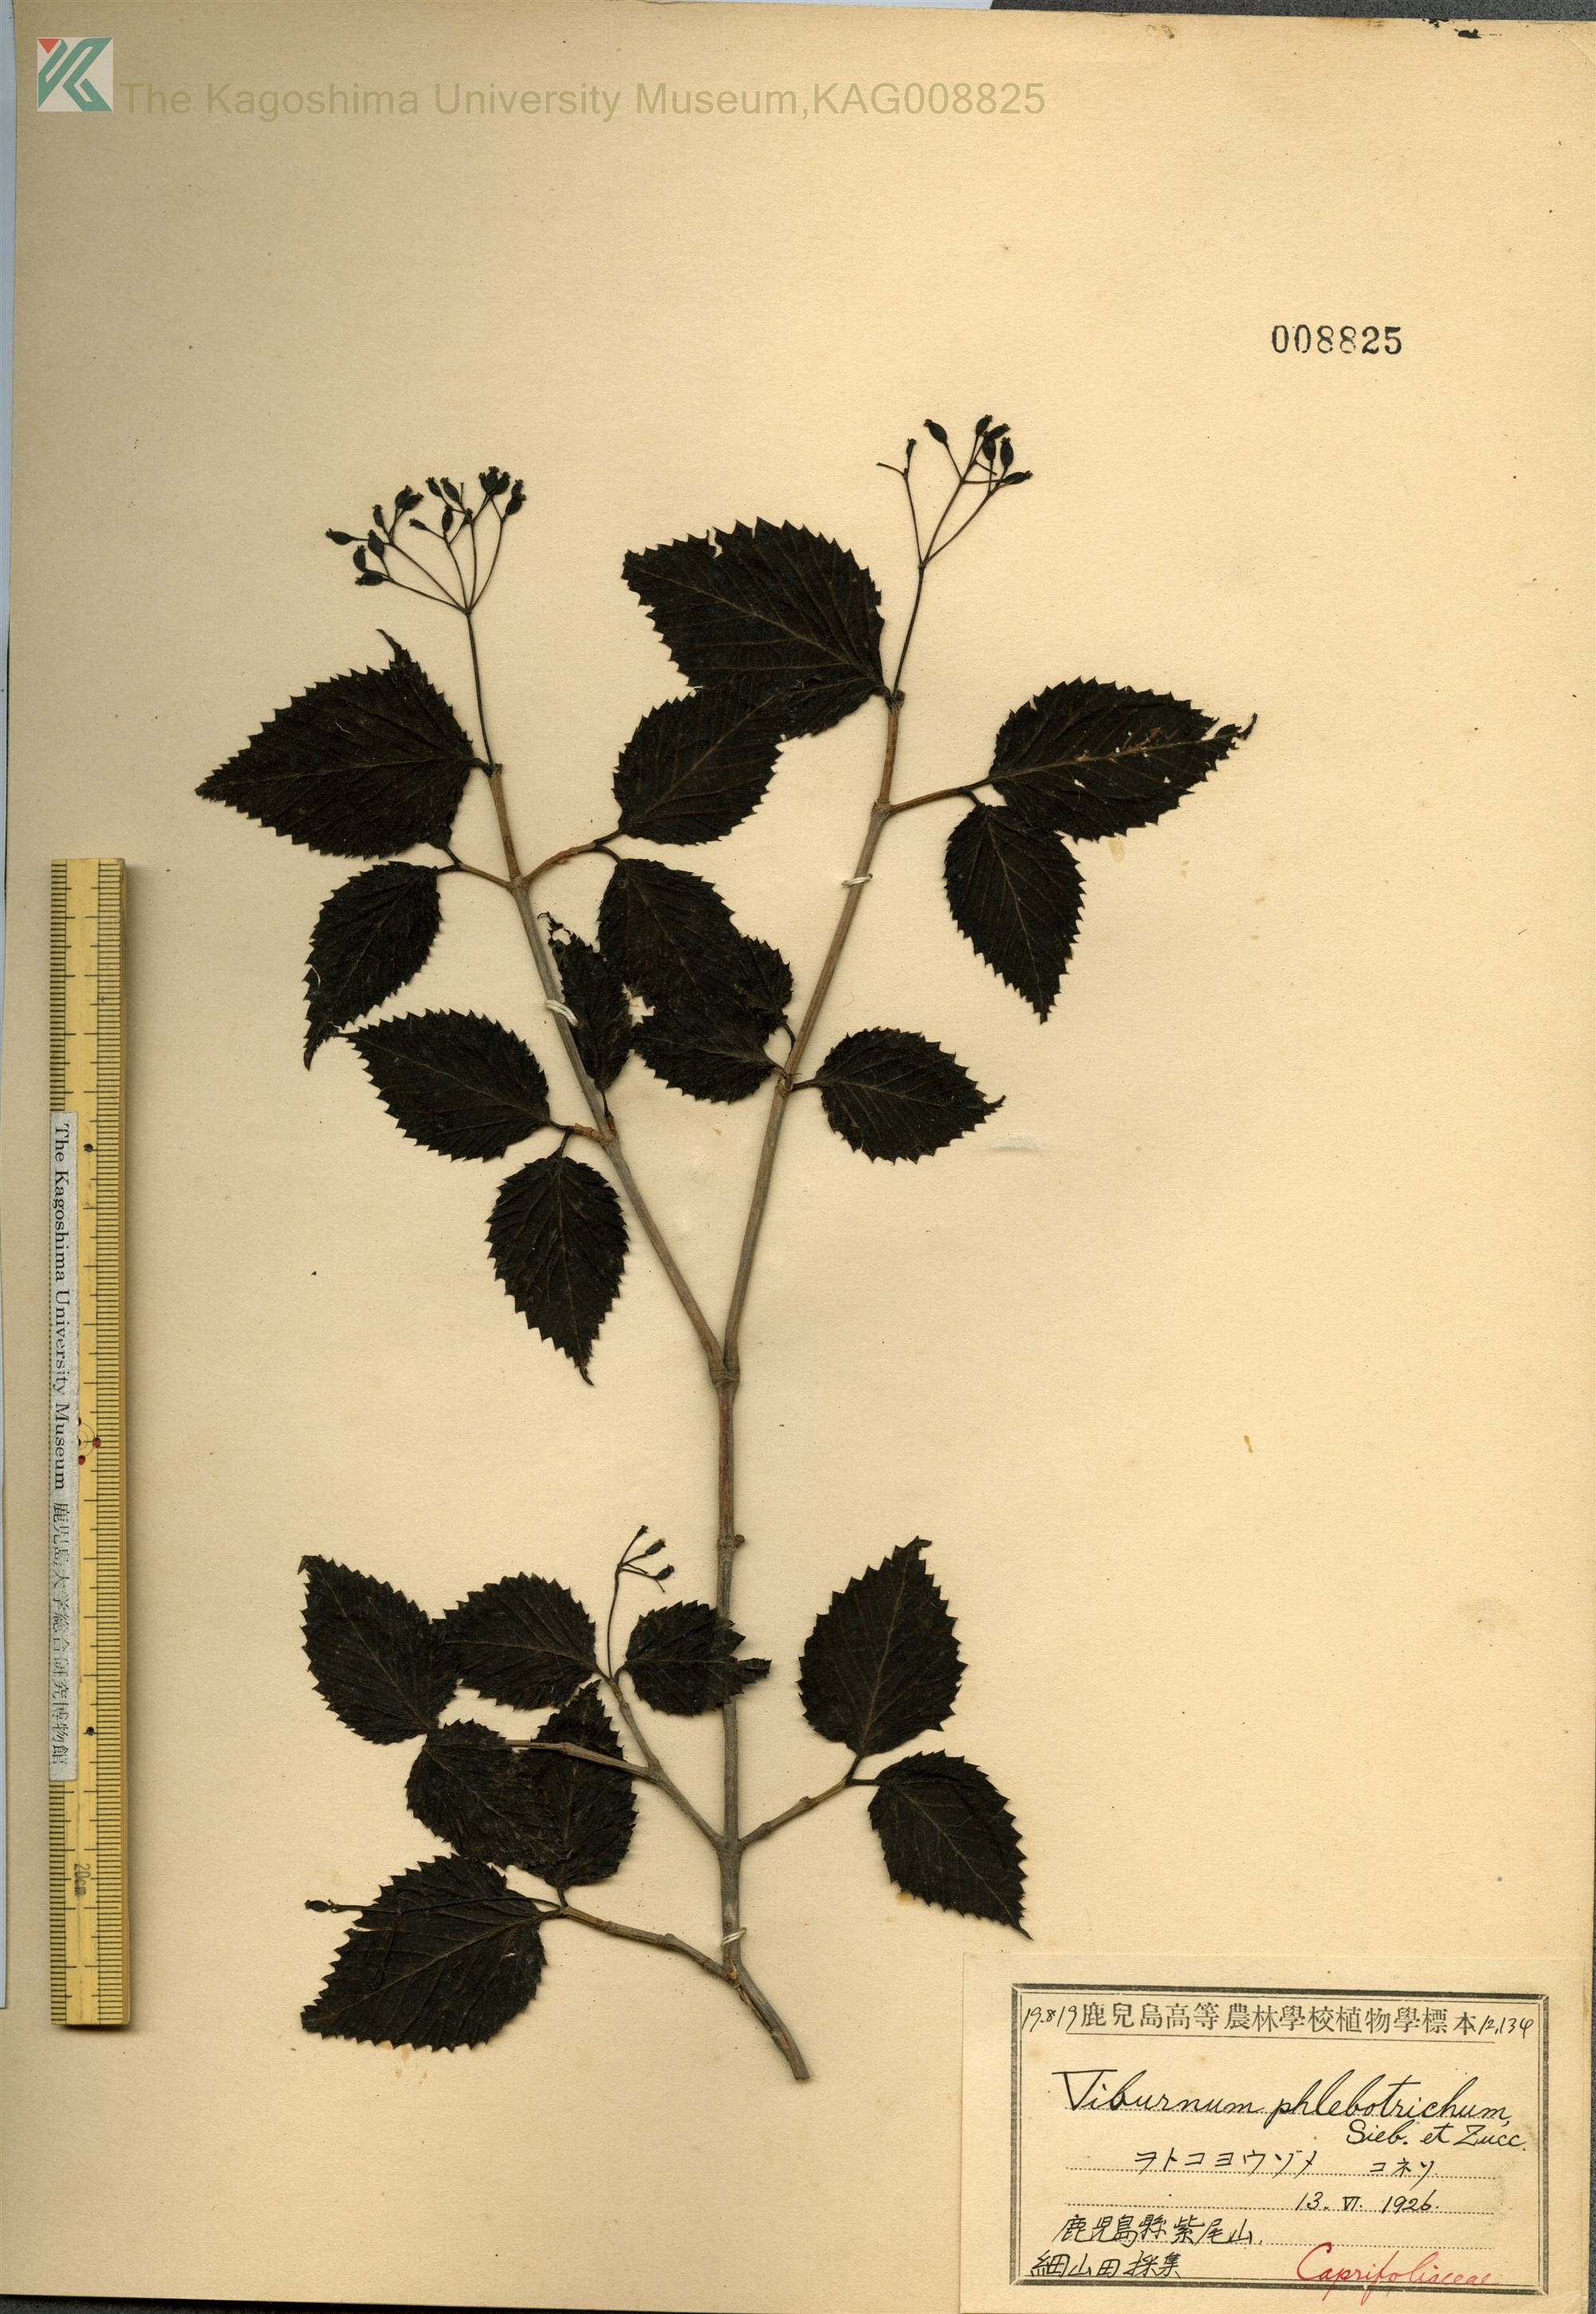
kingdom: Plantae
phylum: Tracheophyta
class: Magnoliopsida
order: Dipsacales
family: Viburnaceae
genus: Viburnum
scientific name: Viburnum phlebotrichum
